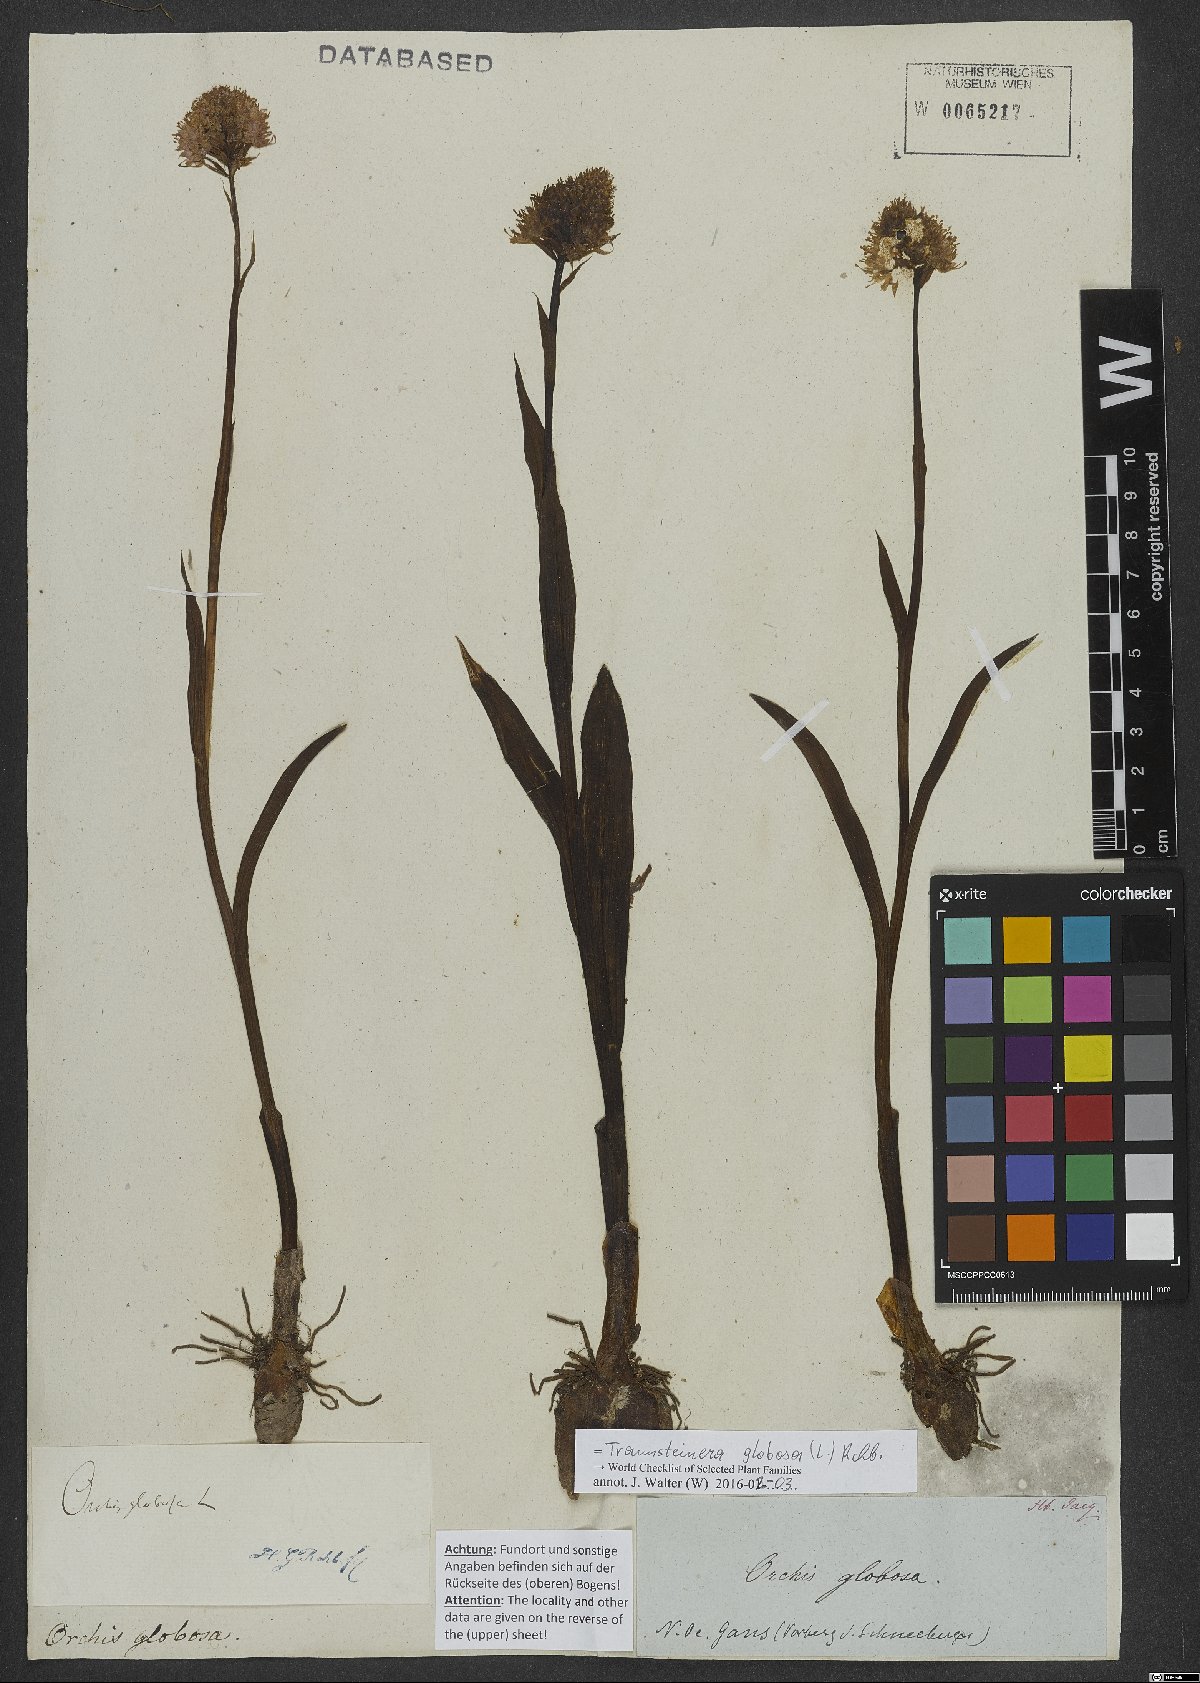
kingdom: Plantae
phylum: Tracheophyta
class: Liliopsida
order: Asparagales
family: Orchidaceae
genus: Traunsteinera
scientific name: Traunsteinera globosa
